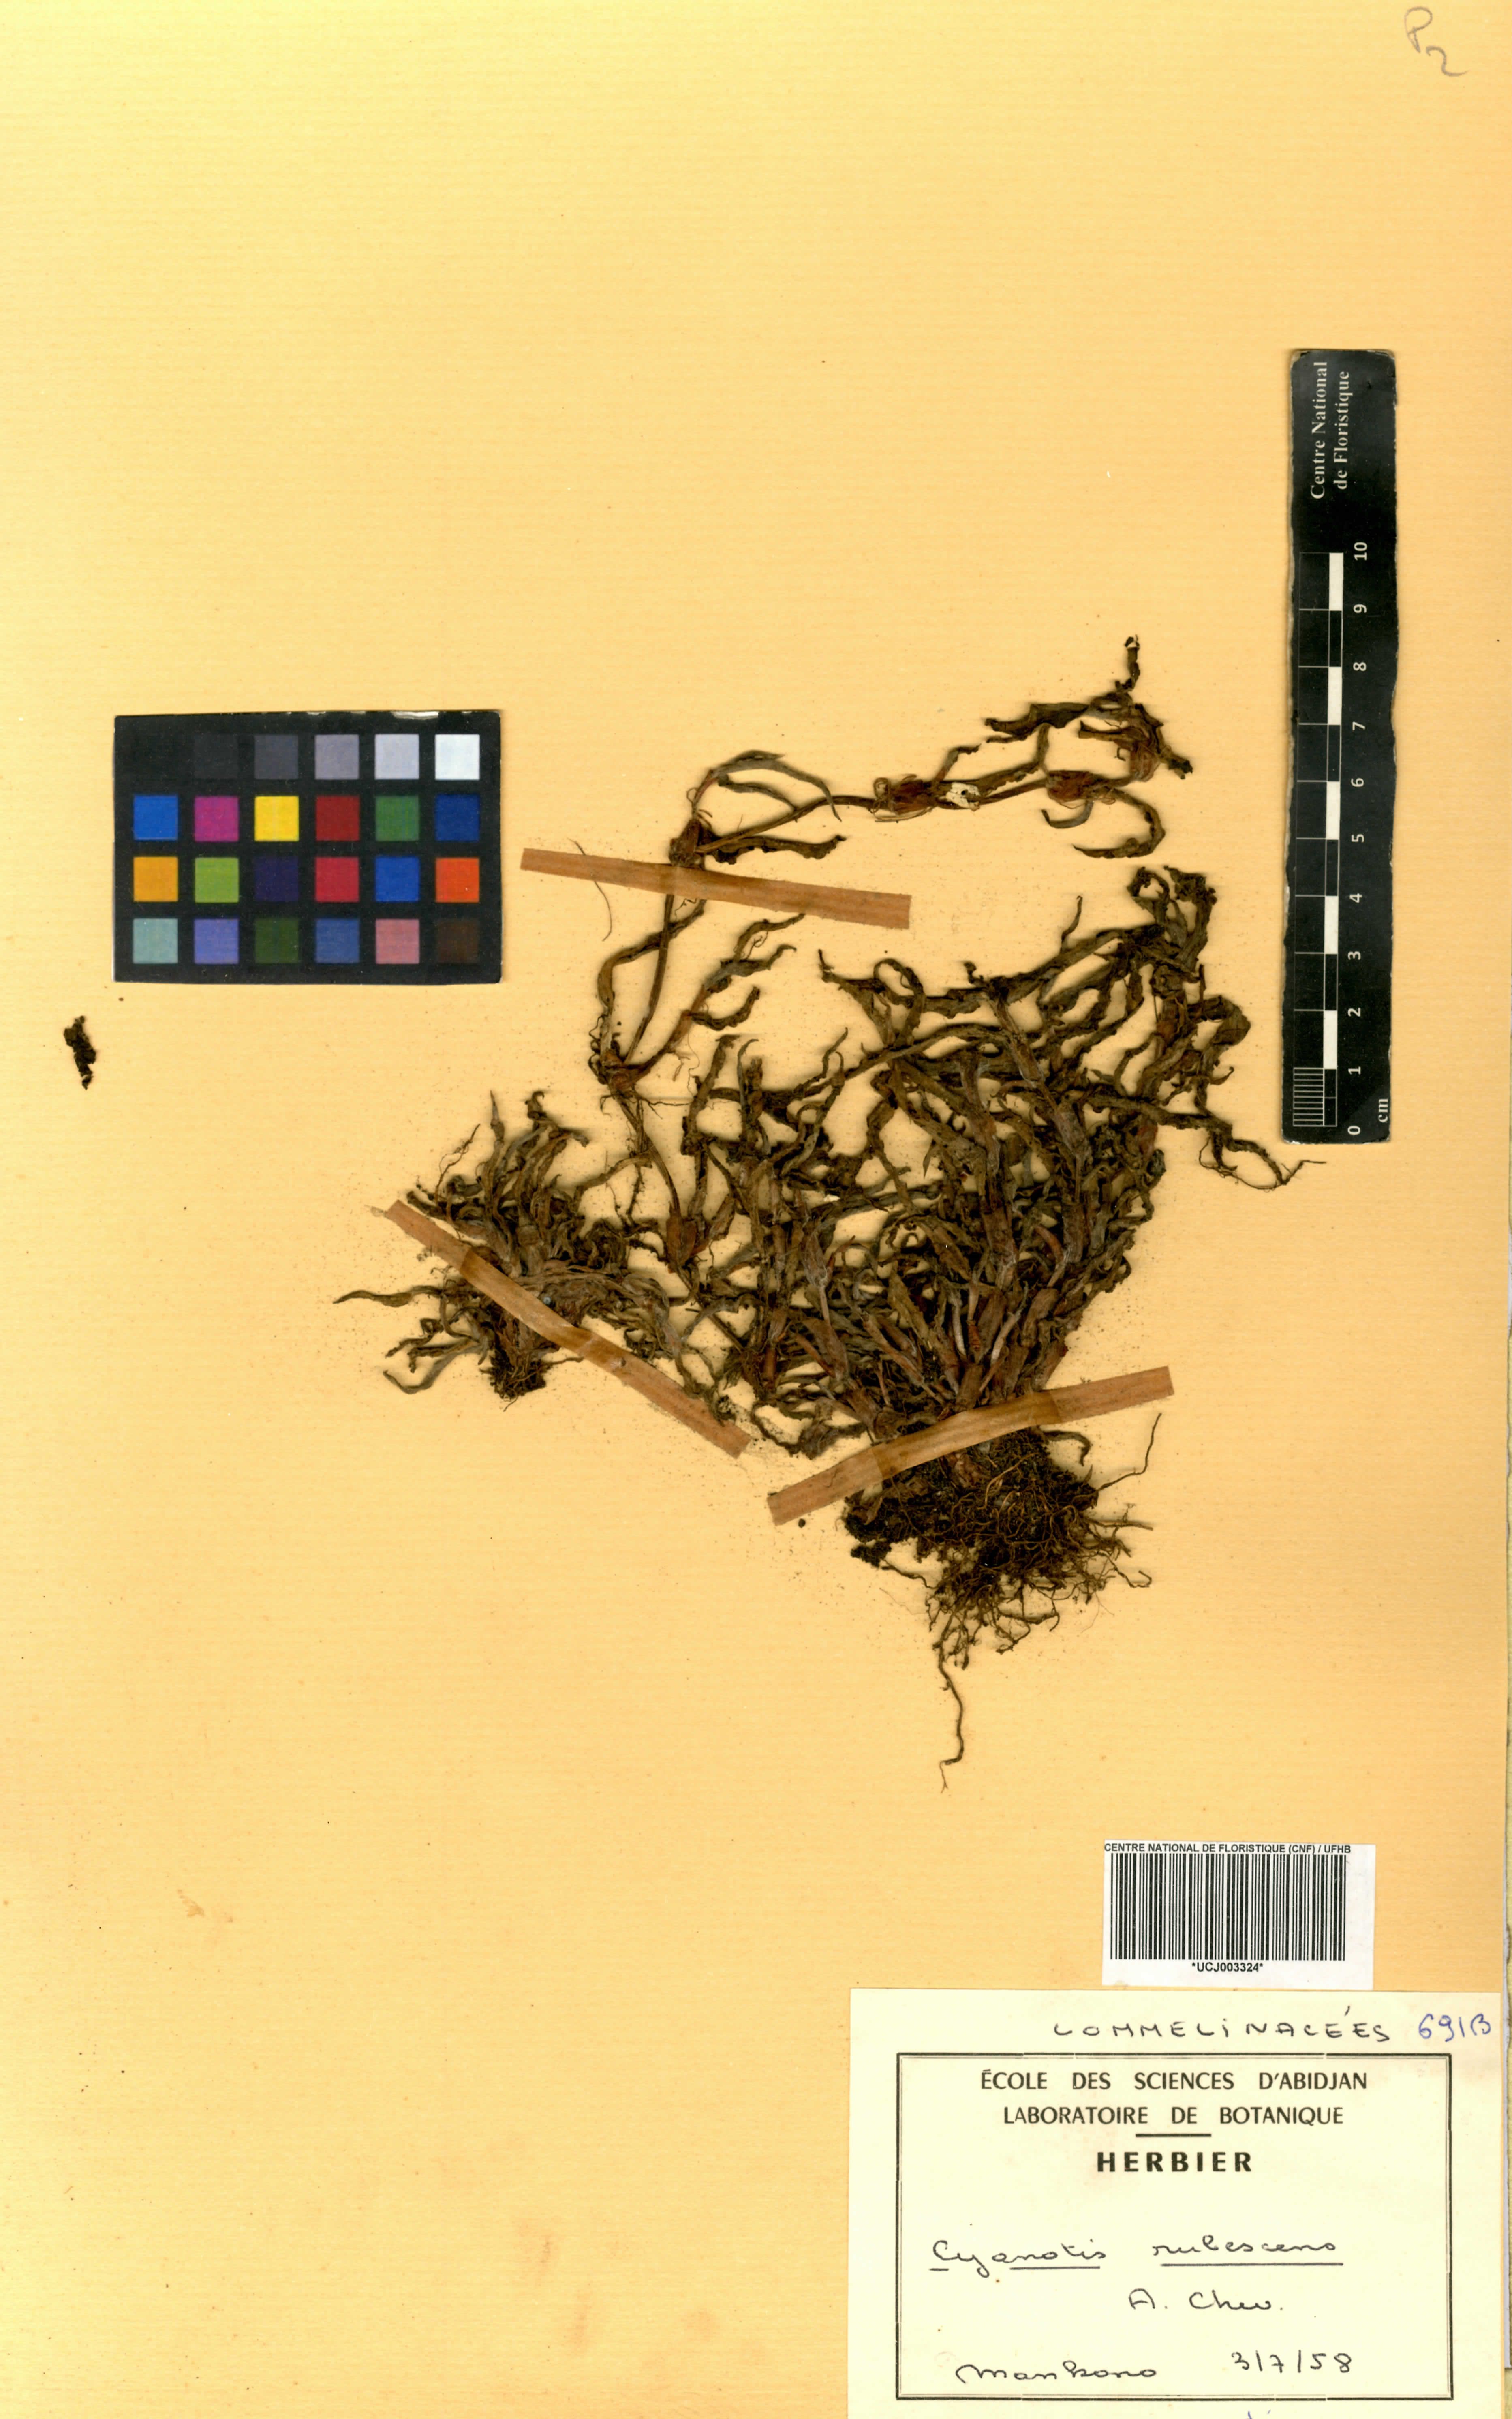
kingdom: Plantae
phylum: Tracheophyta
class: Liliopsida
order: Commelinales
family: Commelinaceae
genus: Cyanotis
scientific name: Cyanotis lanata
